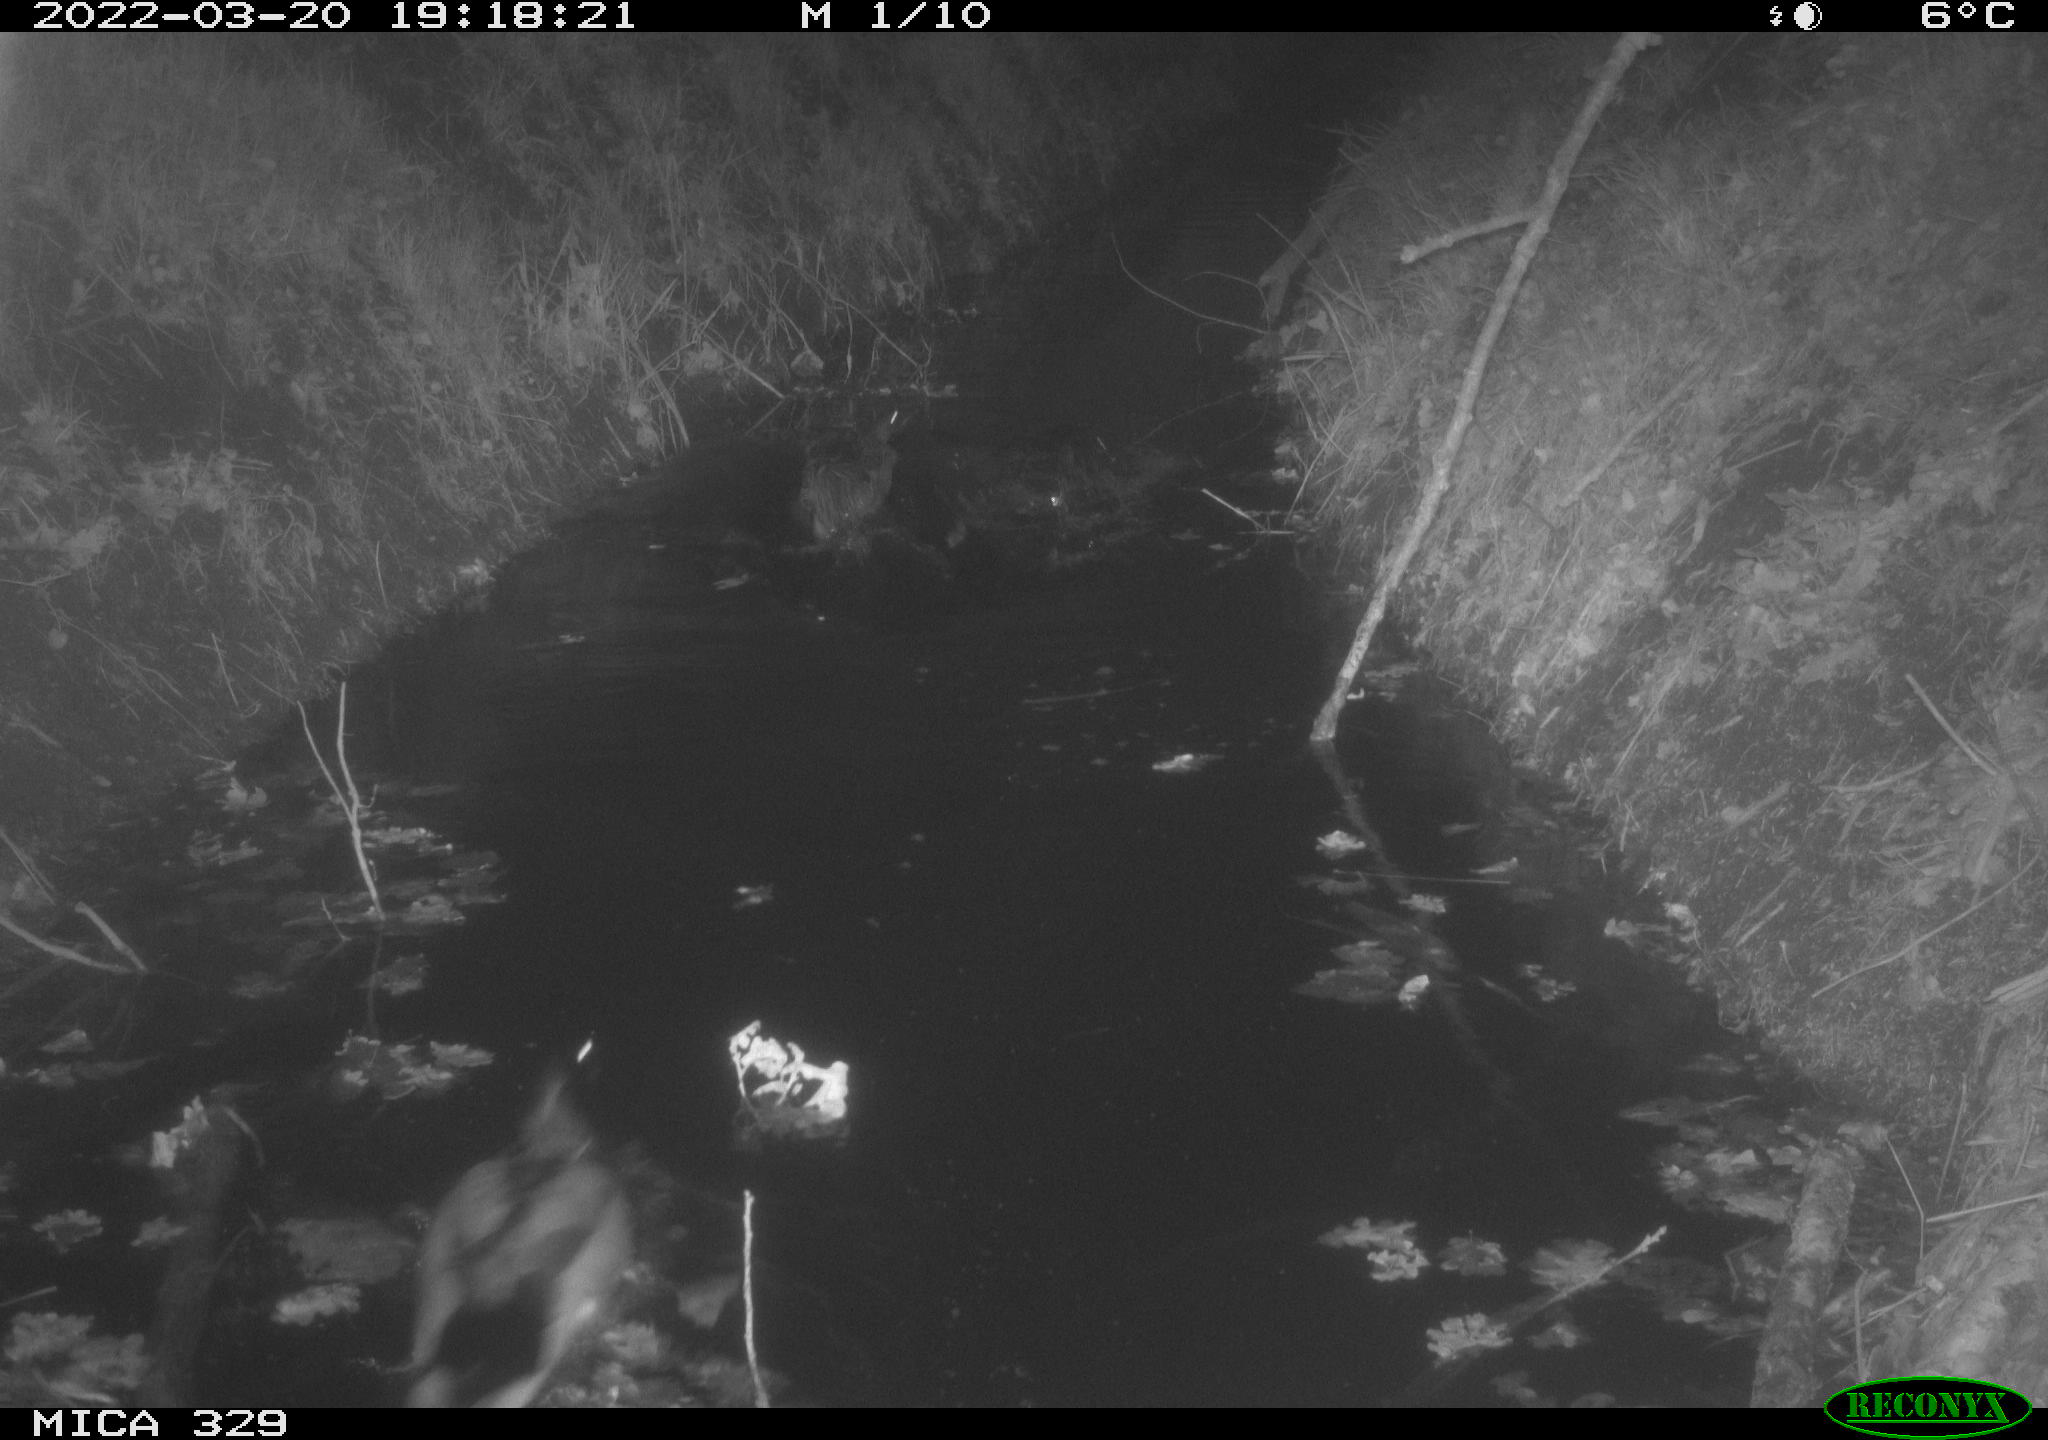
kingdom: Animalia
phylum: Chordata
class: Aves
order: Anseriformes
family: Anatidae
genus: Anas
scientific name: Anas platyrhynchos
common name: Mallard
